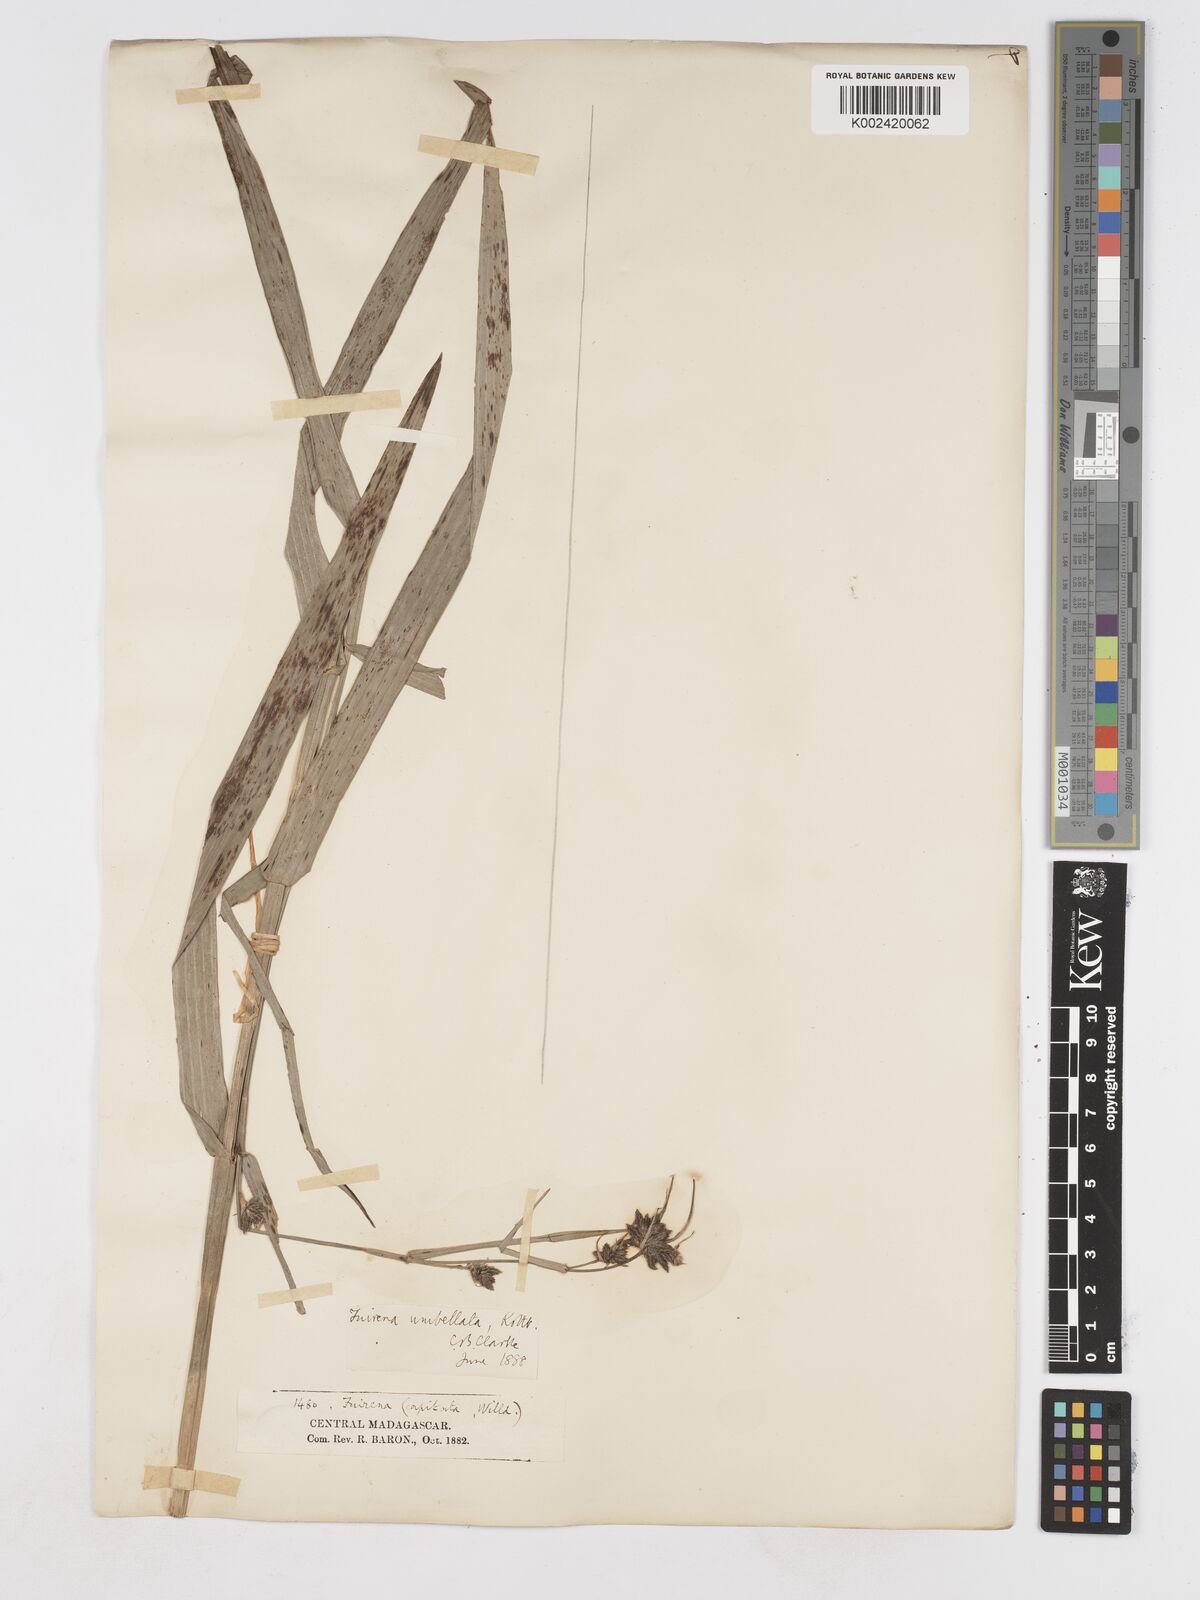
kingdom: Plantae
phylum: Tracheophyta
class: Liliopsida
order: Poales
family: Cyperaceae
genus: Fuirena
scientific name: Fuirena umbellata
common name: Yefen
